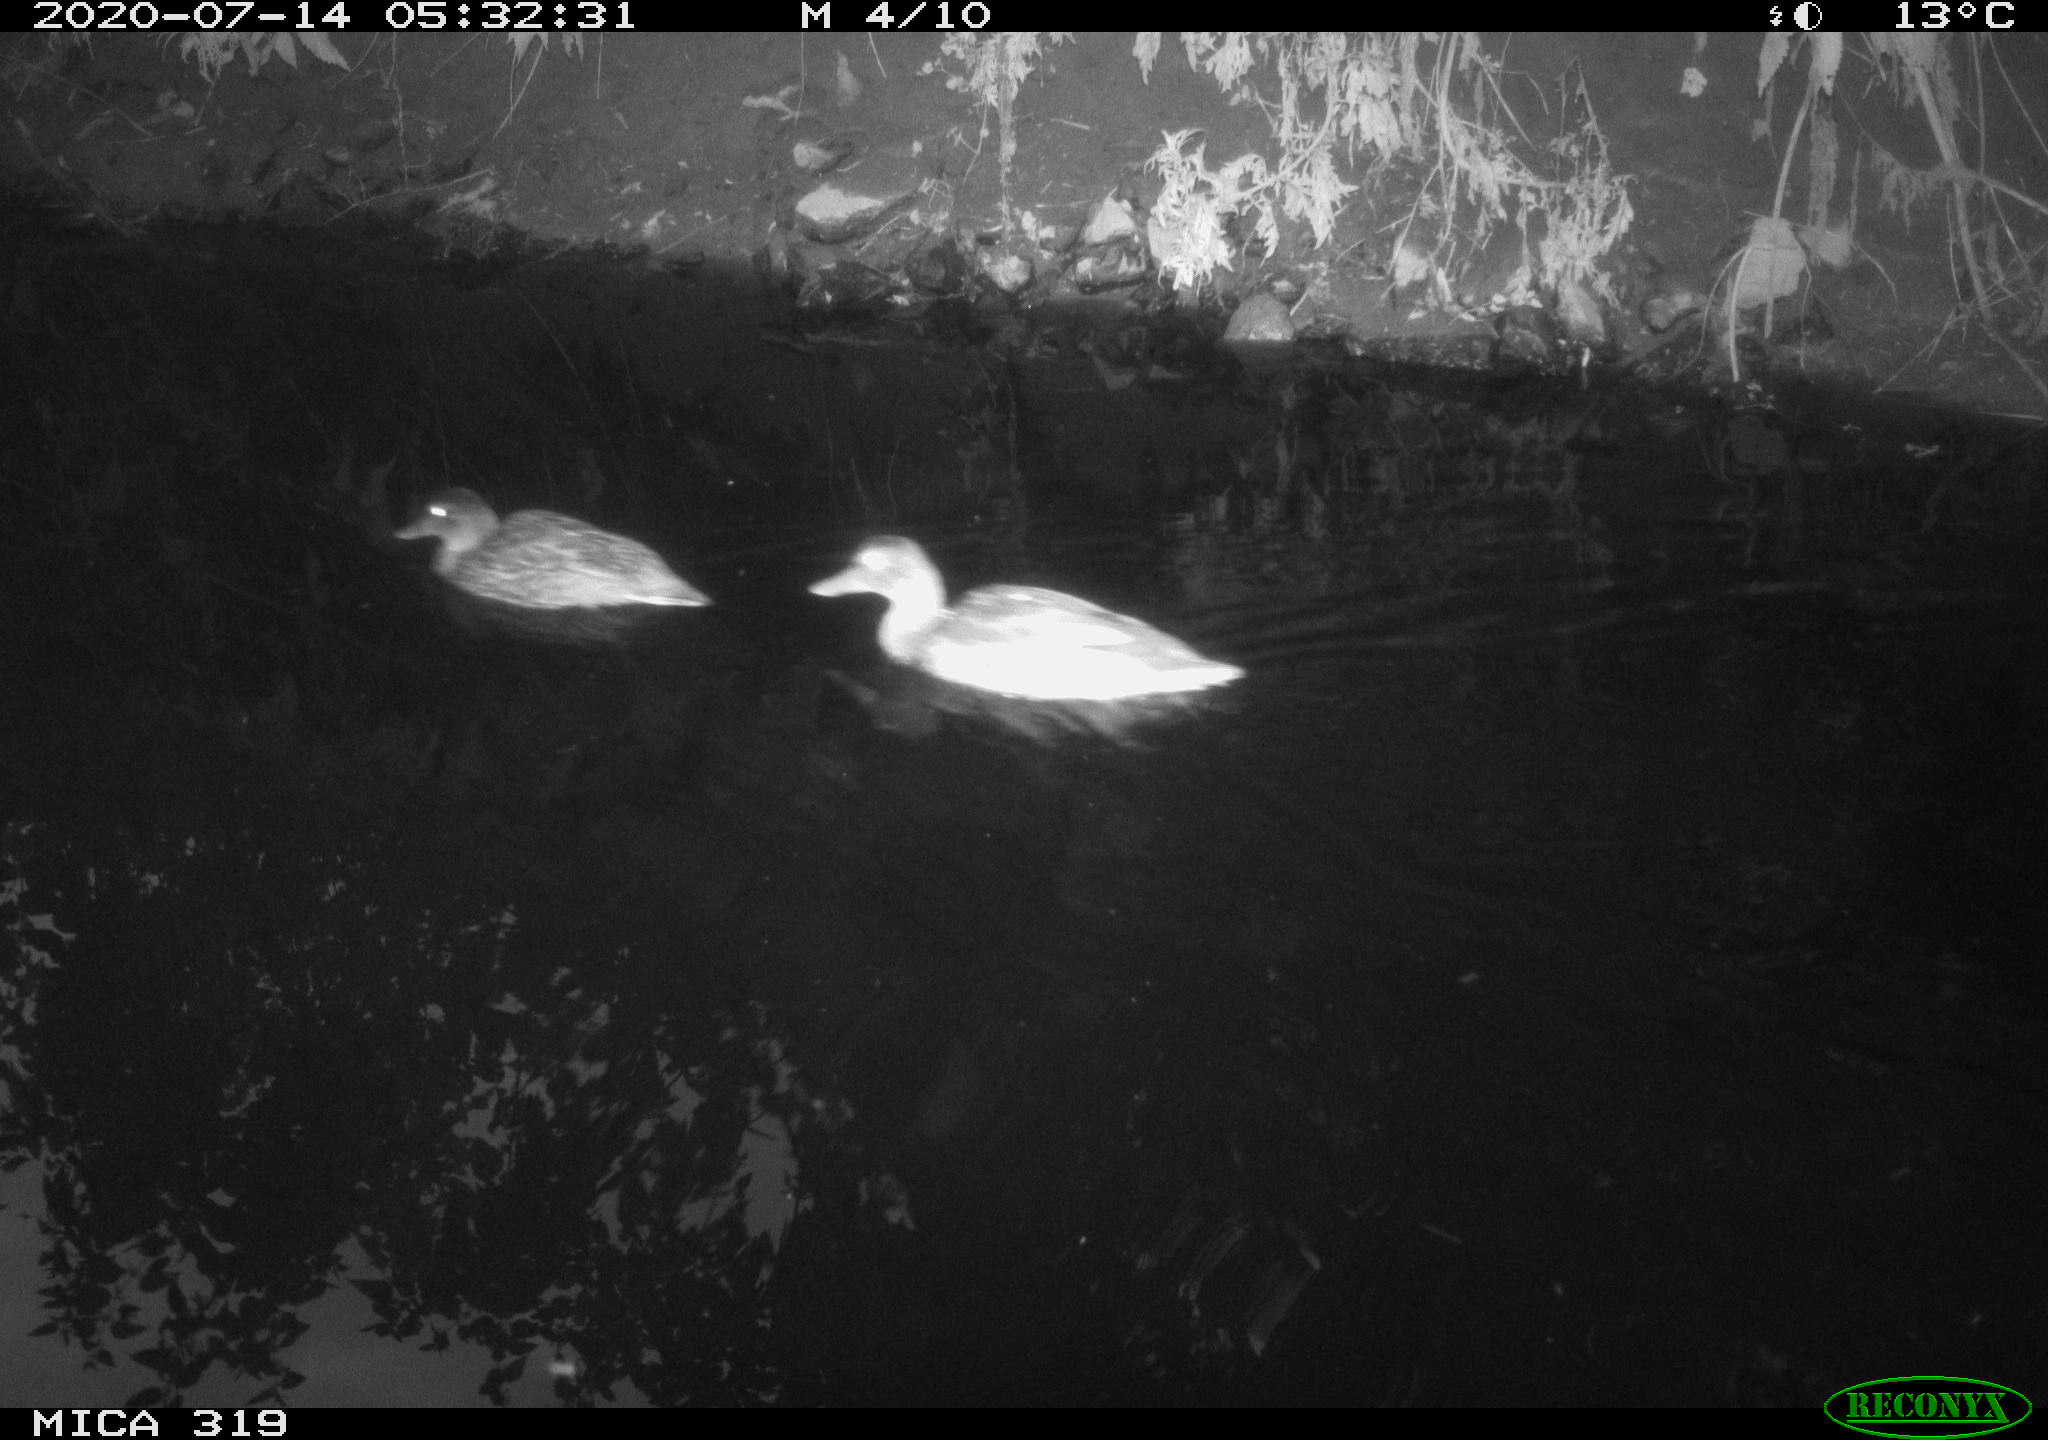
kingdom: Animalia
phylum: Chordata
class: Aves
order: Anseriformes
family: Anatidae
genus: Anas
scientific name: Anas platyrhynchos
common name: Mallard
